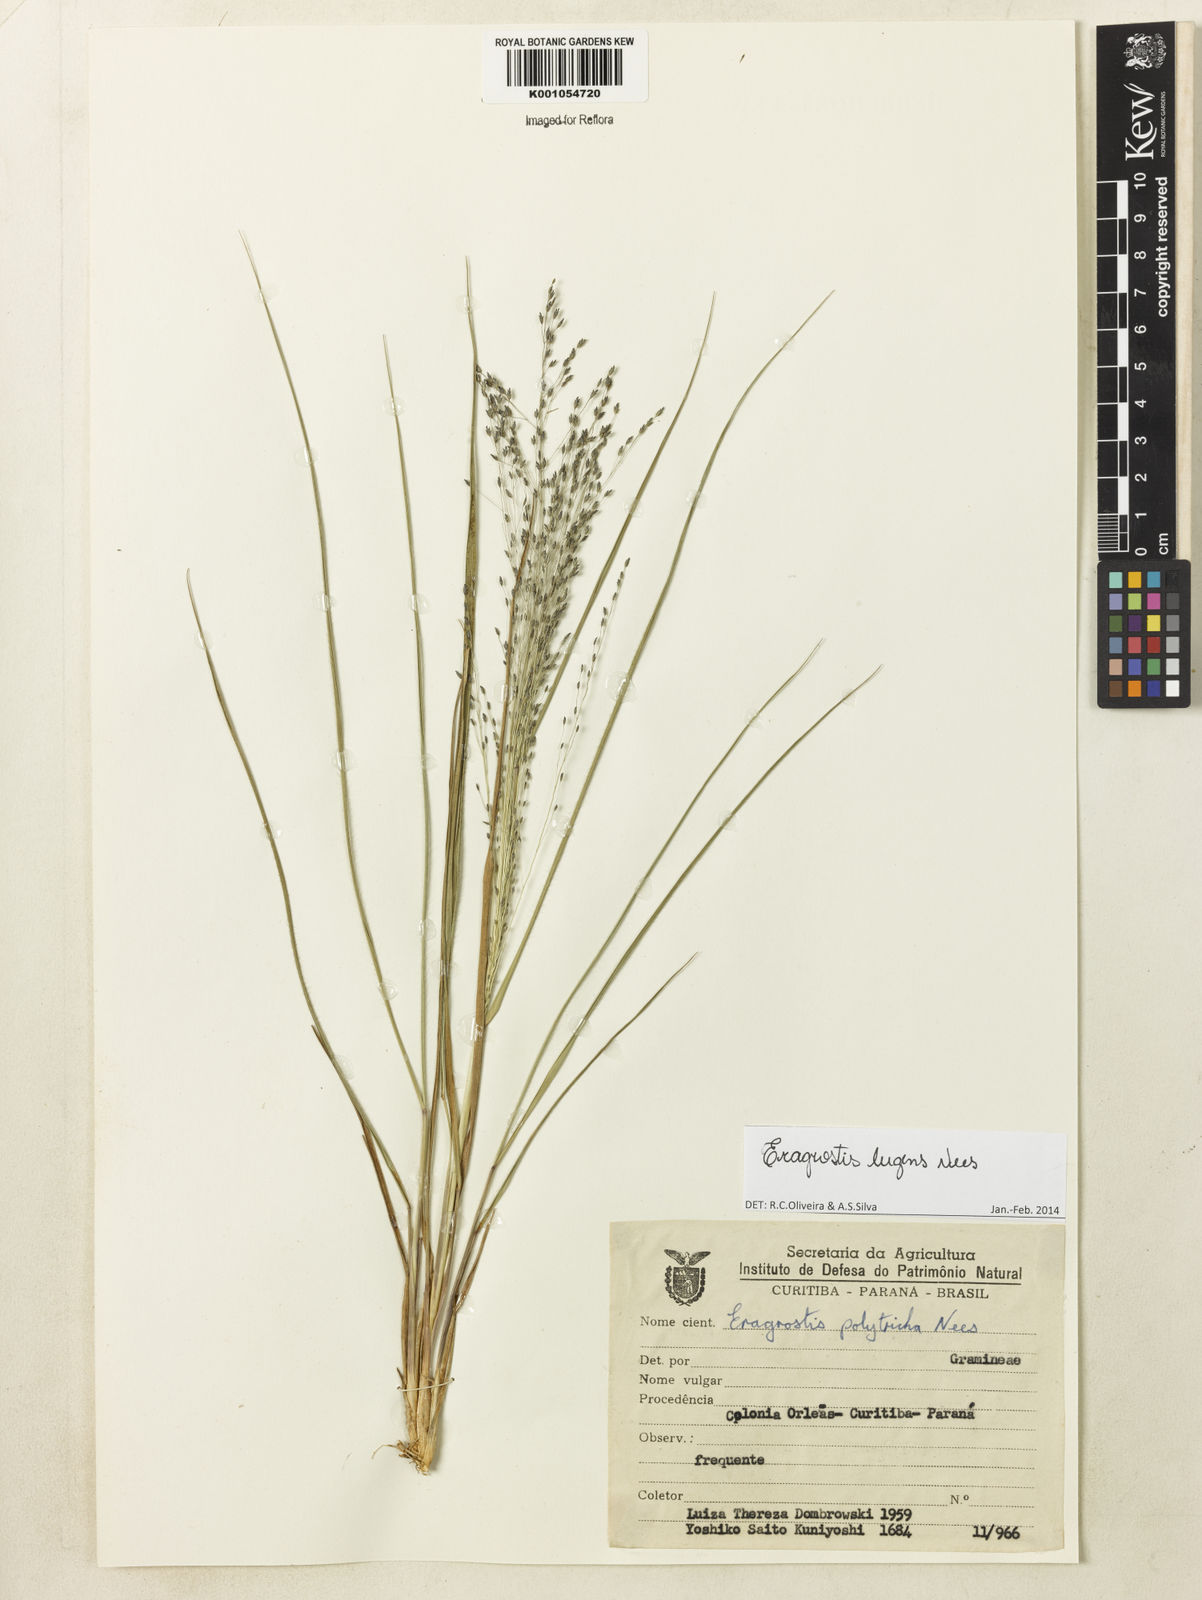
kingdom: Plantae
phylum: Tracheophyta
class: Liliopsida
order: Poales
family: Poaceae
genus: Eragrostis
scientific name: Eragrostis lugens
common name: Mourning love grass
